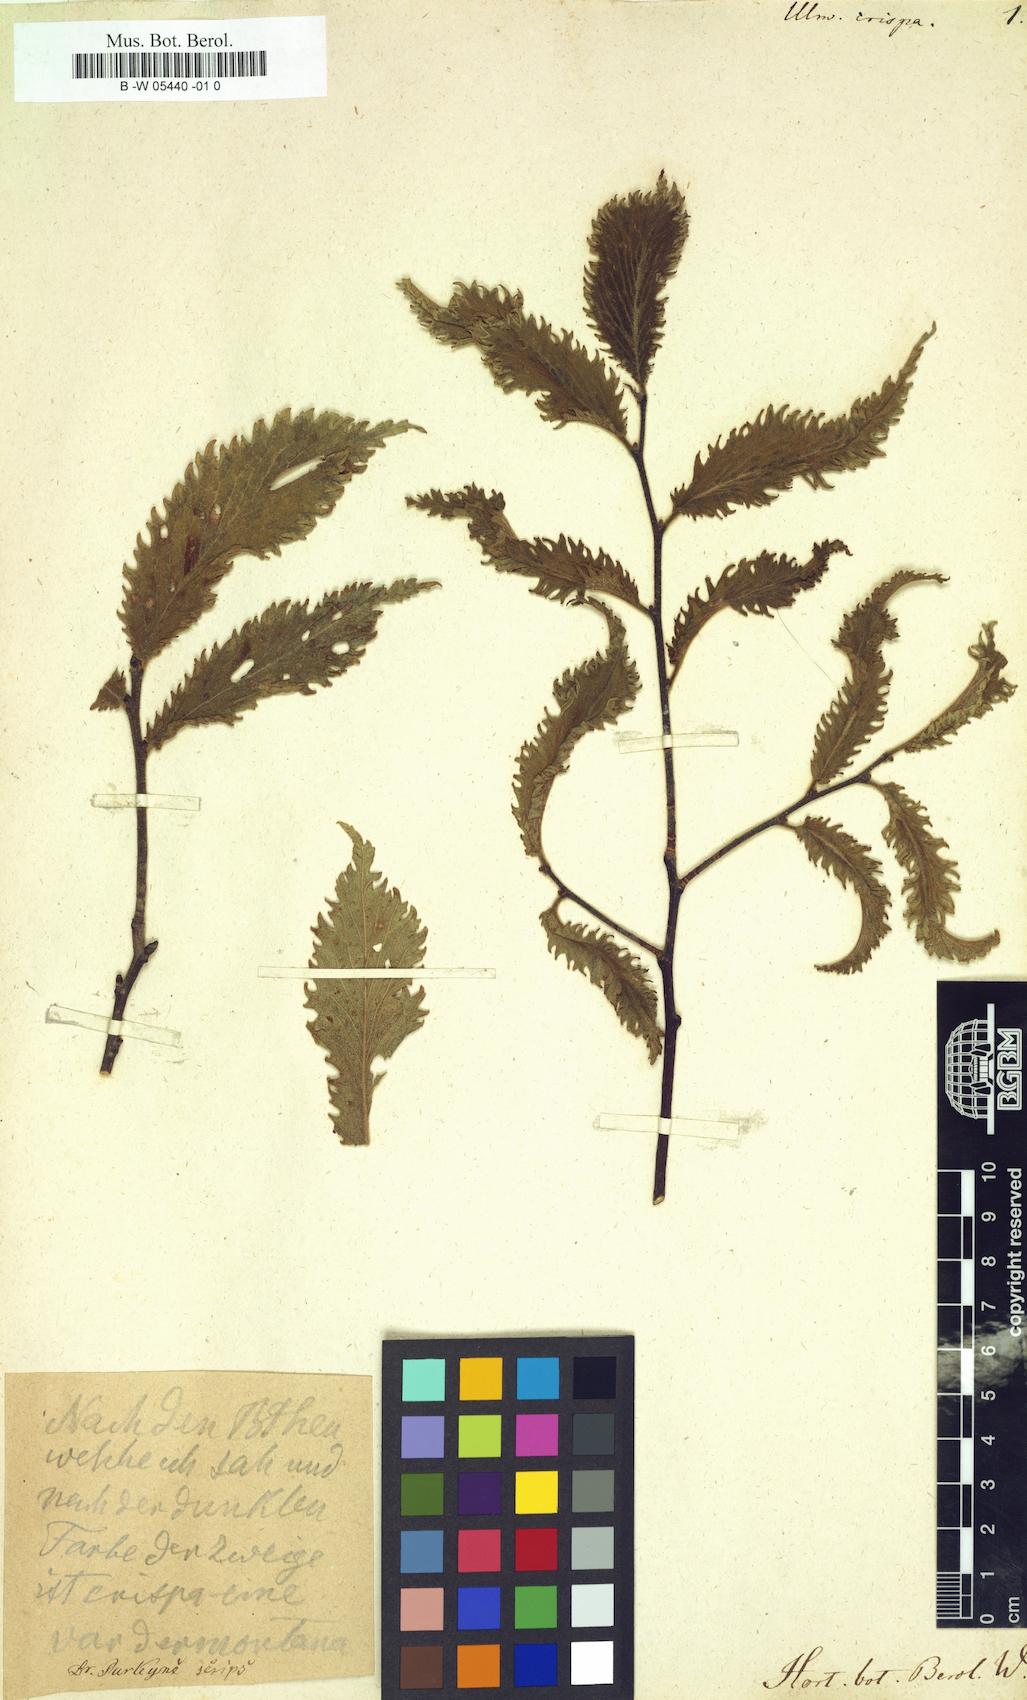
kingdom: Plantae
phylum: Tracheophyta
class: Magnoliopsida
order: Rosales
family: Ulmaceae
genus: Ulmus
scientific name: Ulmus rubra
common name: Slippery elm
